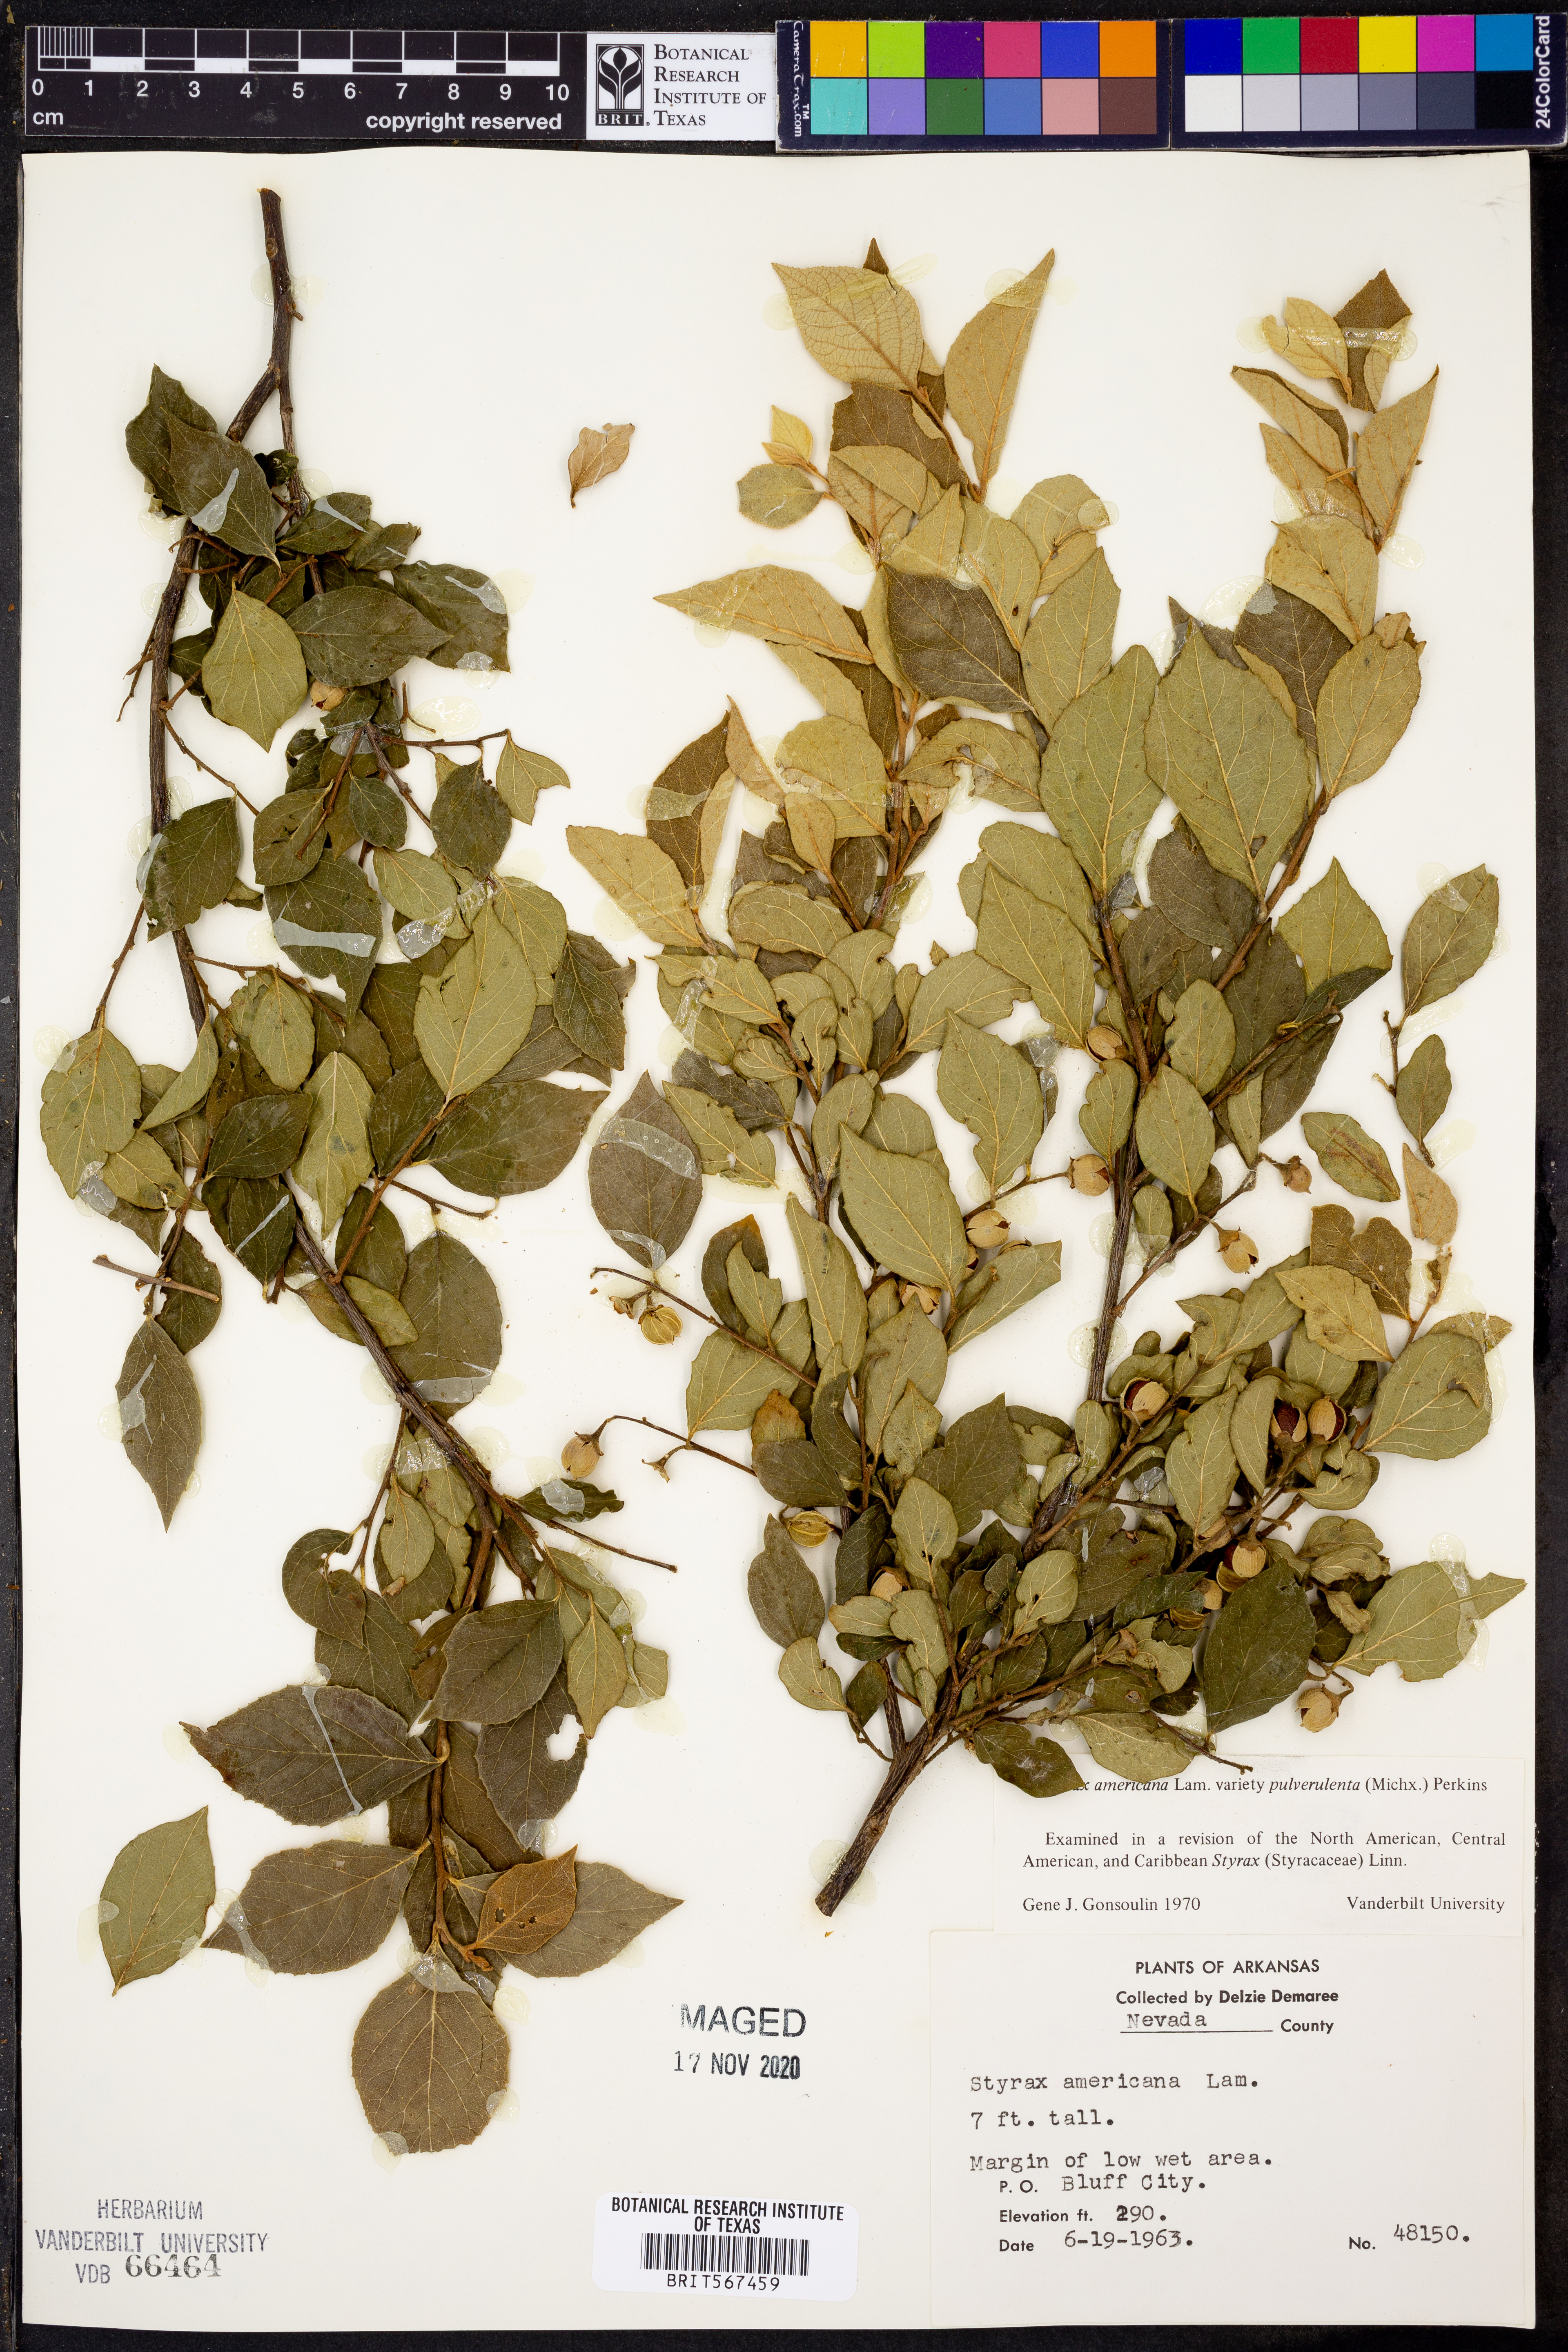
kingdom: Plantae
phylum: Tracheophyta
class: Magnoliopsida
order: Ericales
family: Styracaceae
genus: Styrax
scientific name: Styrax americanus
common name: American snowbell
